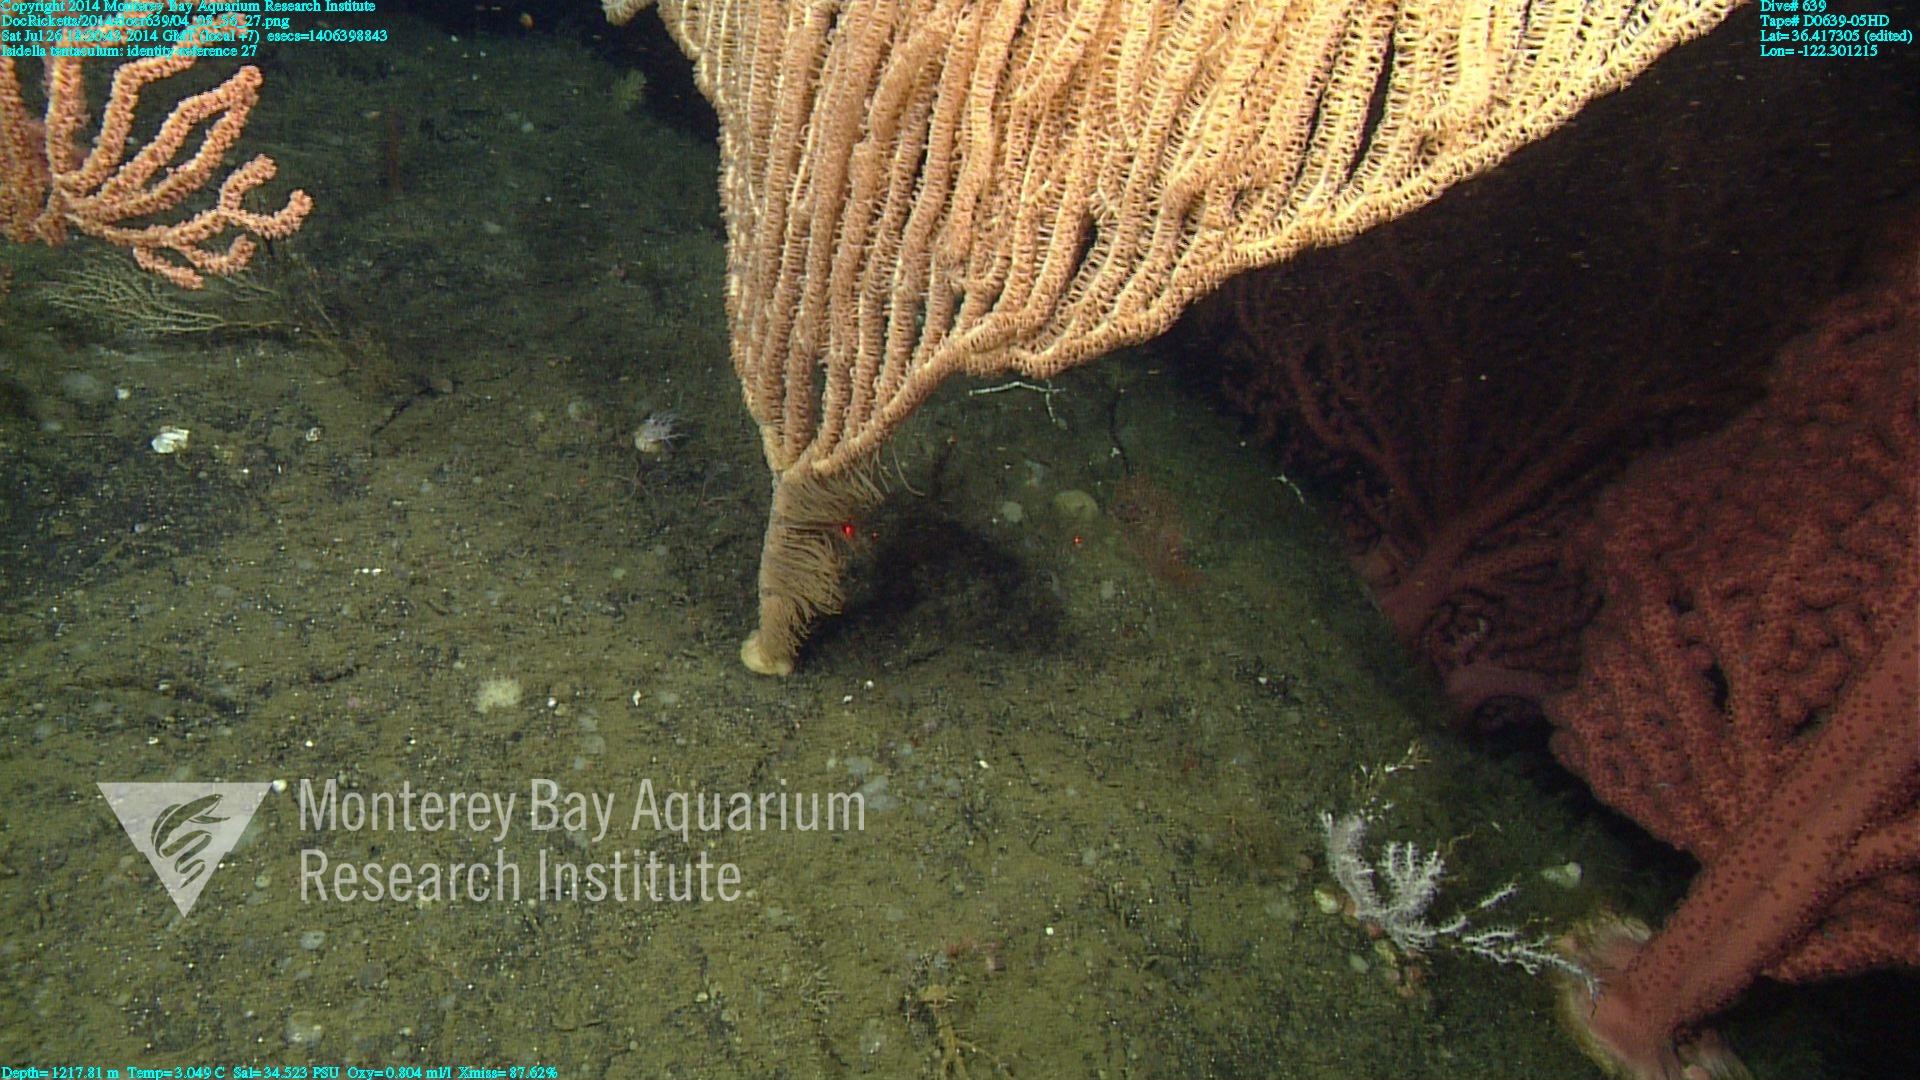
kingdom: Animalia
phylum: Cnidaria
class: Anthozoa
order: Scleralcyonacea
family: Keratoisididae
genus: Isidella
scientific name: Isidella tentaculum
